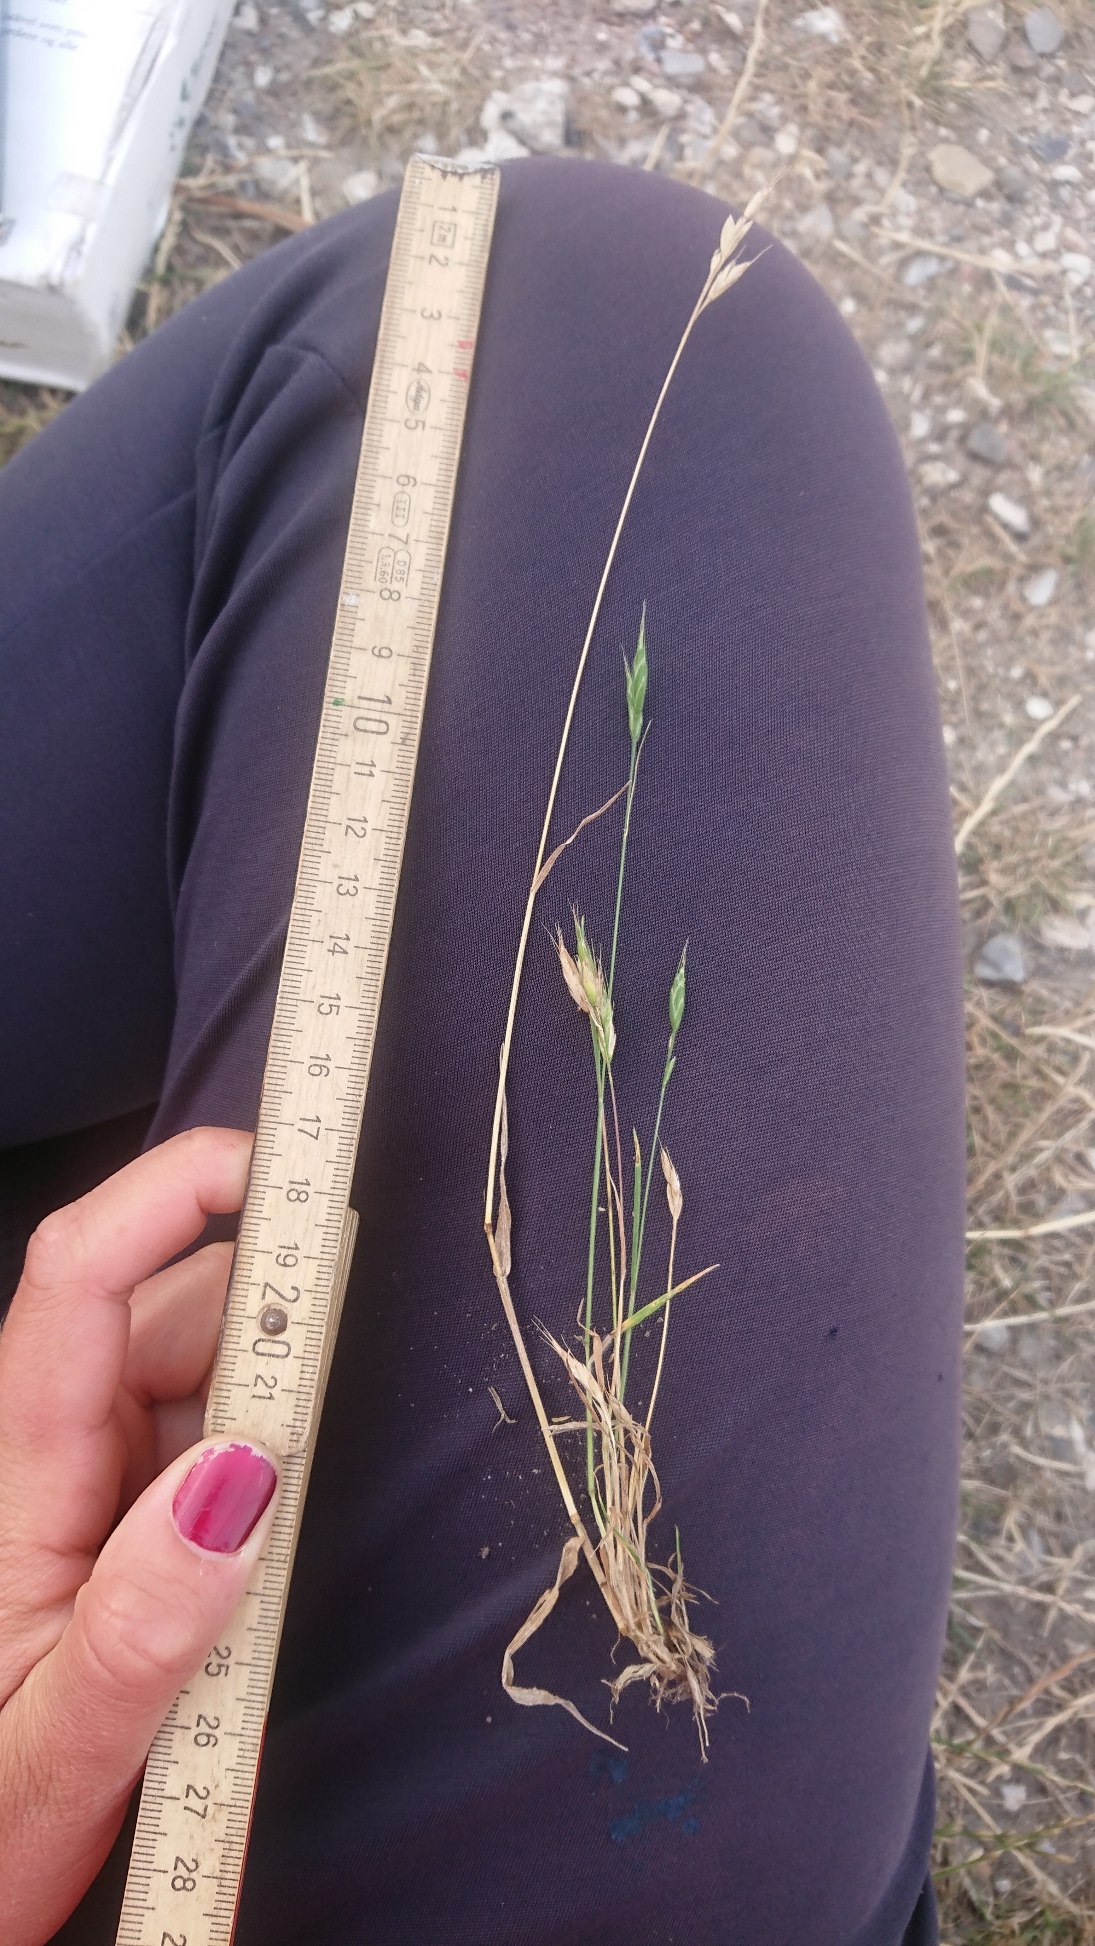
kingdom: Plantae
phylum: Tracheophyta
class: Liliopsida
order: Poales
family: Poaceae
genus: Bromus
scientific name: Bromus hordeaceus
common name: Blød hejre
